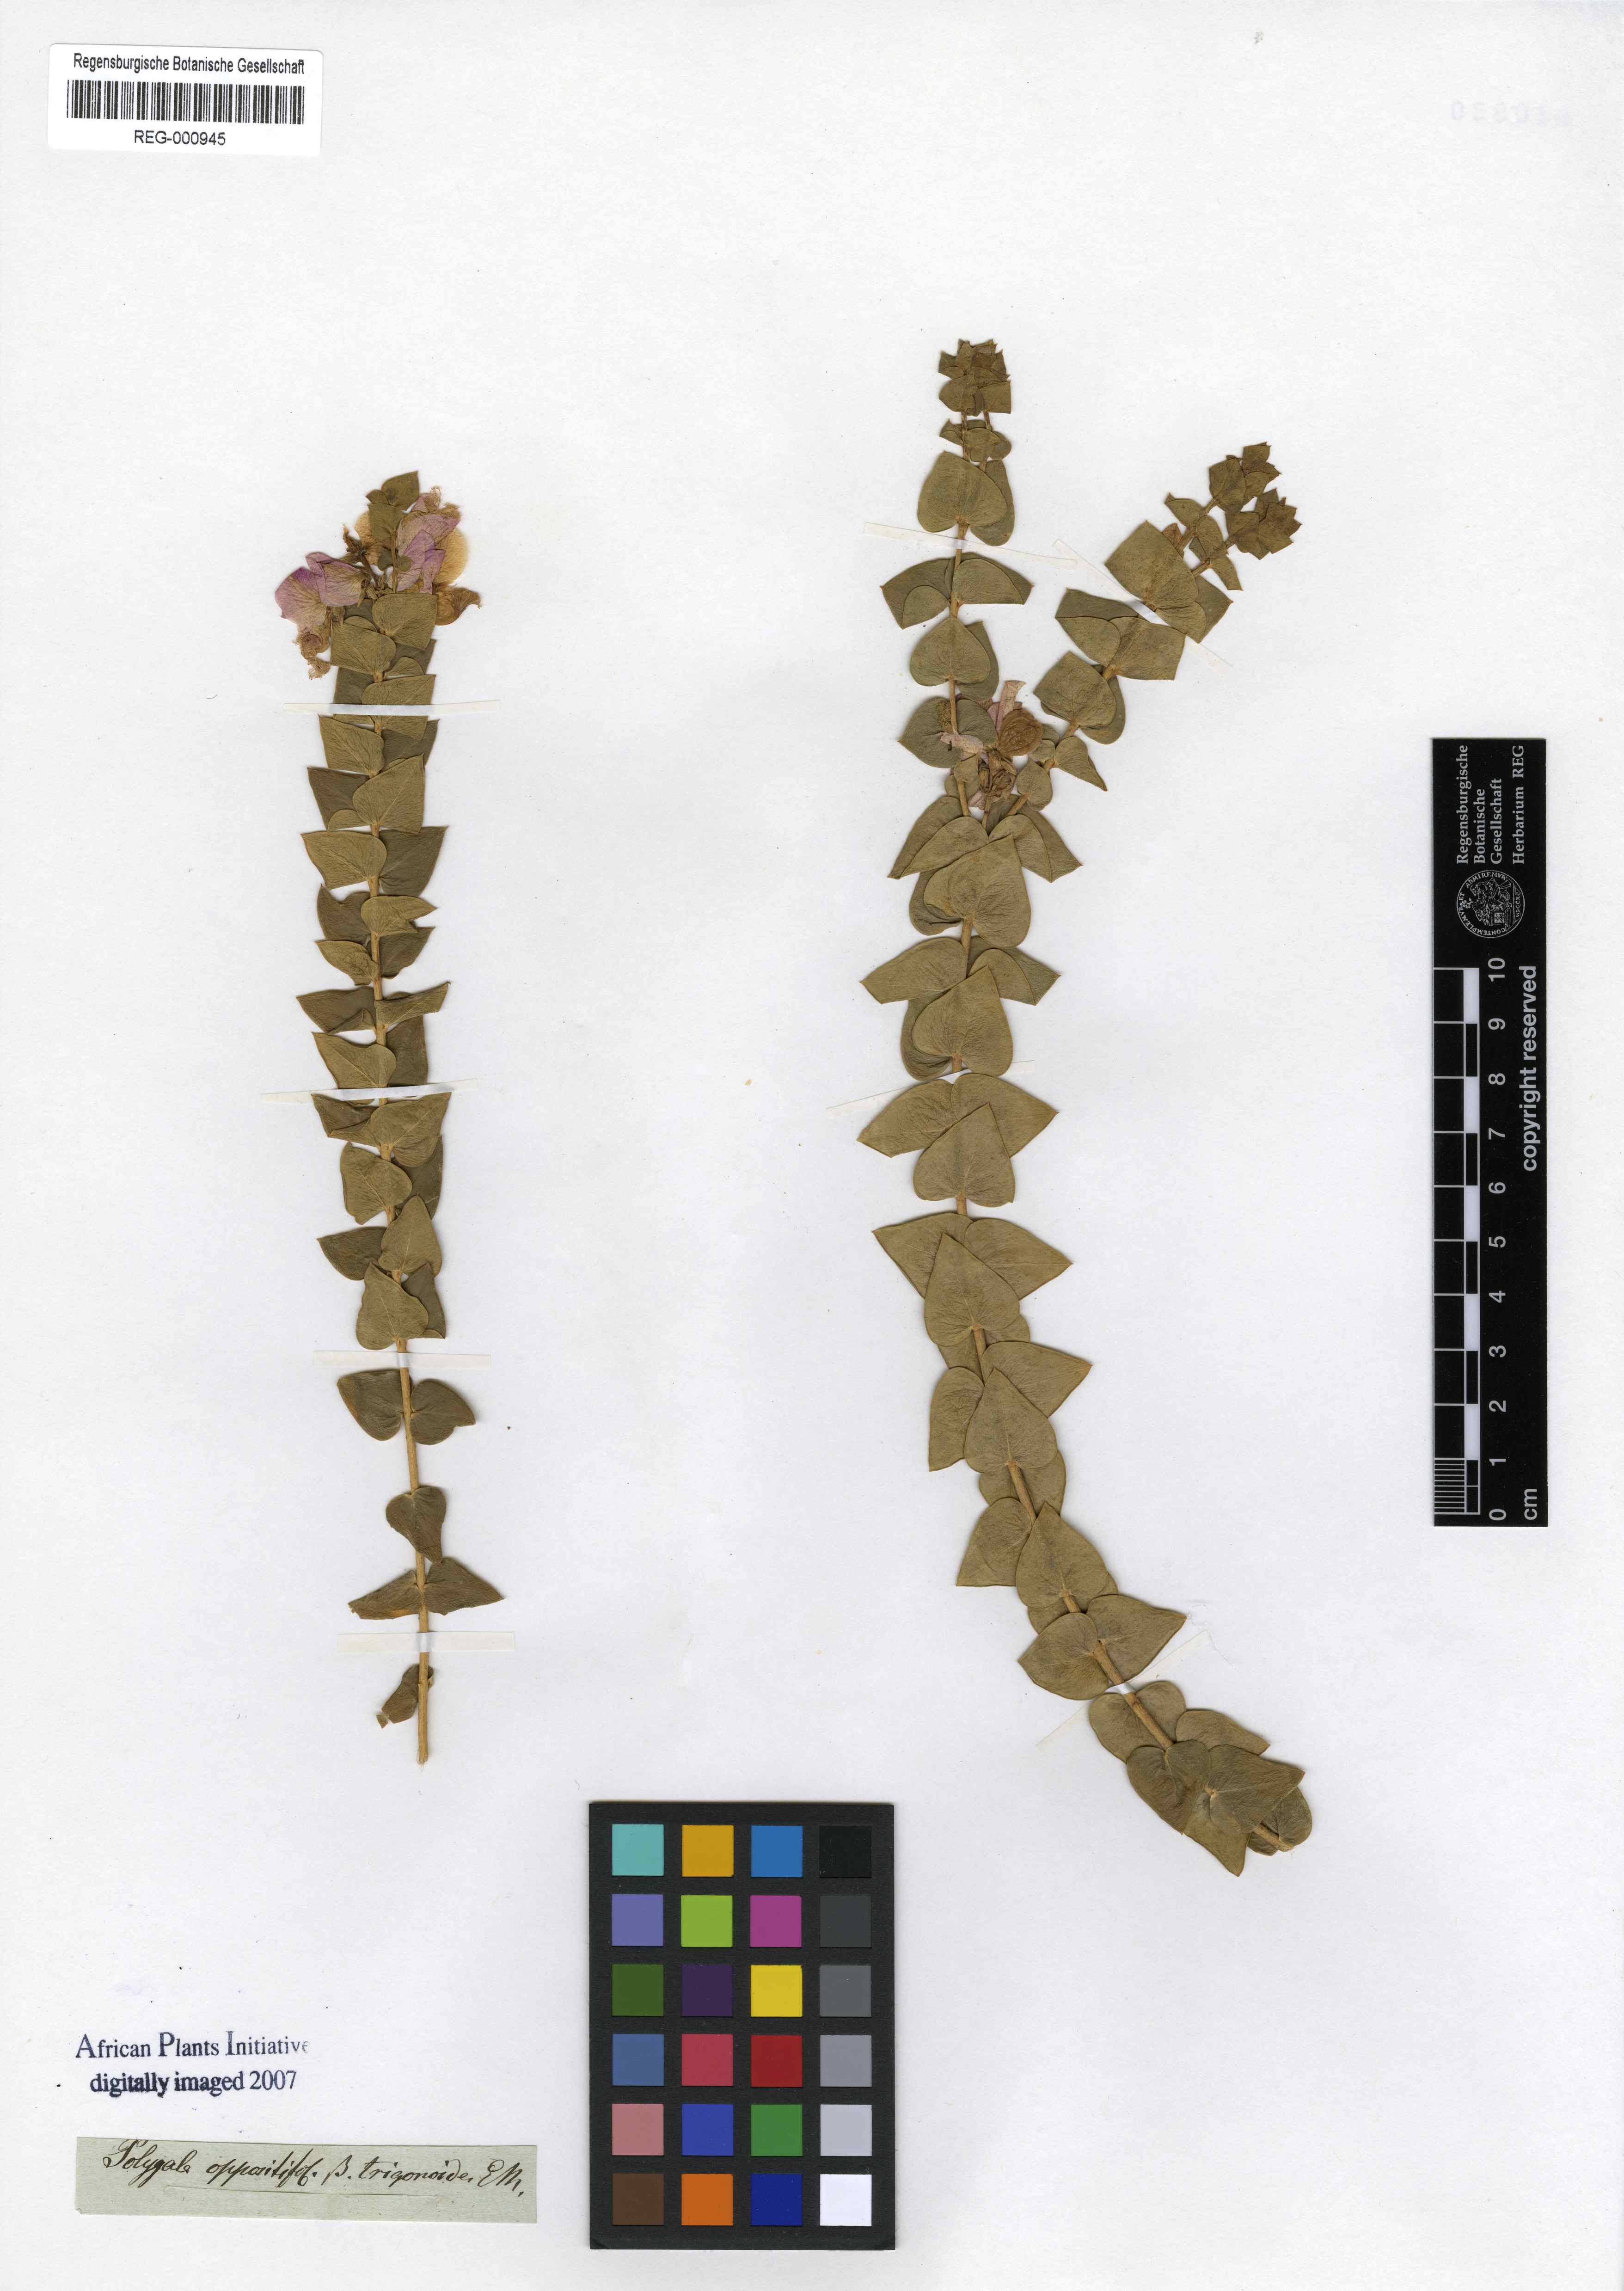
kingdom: Plantae
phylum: Tracheophyta
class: Magnoliopsida
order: Fabales
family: Polygalaceae
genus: Polygala
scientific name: Polygala fruticosa
